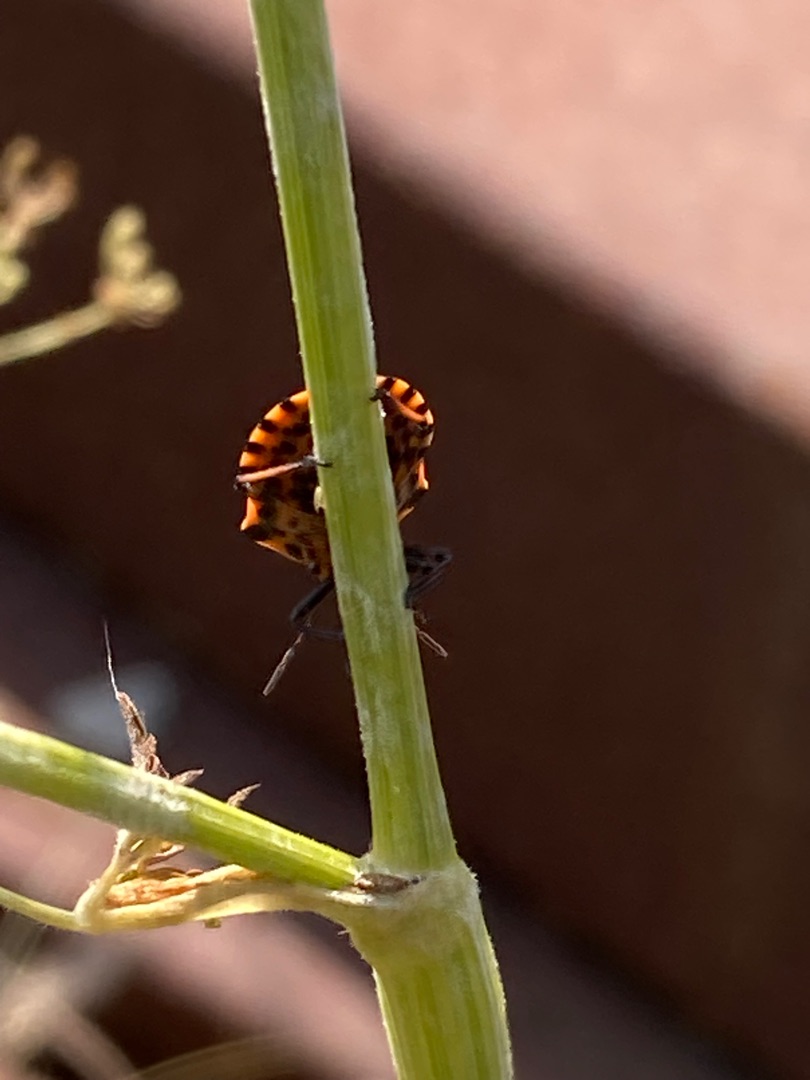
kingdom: Animalia
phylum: Arthropoda
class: Insecta
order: Hemiptera
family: Pentatomidae
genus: Graphosoma
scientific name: Graphosoma italicum
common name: Stribetæge
